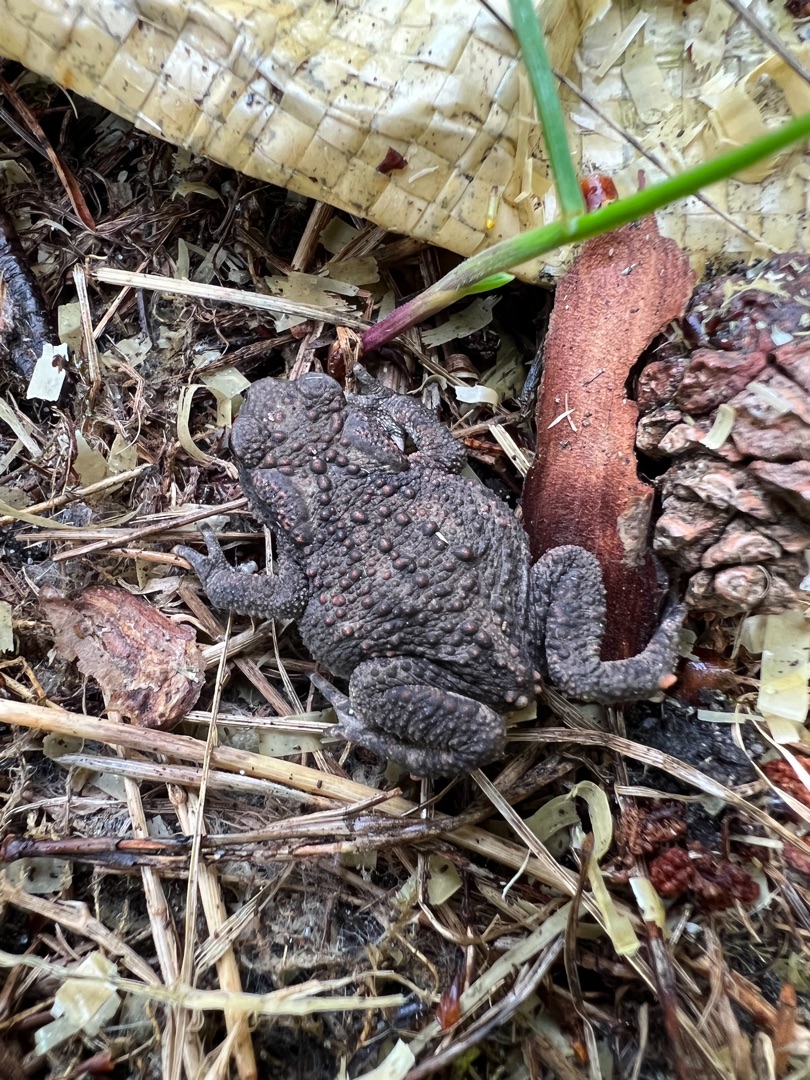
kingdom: Animalia
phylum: Chordata
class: Amphibia
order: Anura
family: Bufonidae
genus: Bufo
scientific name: Bufo bufo
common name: Skrubtudse
